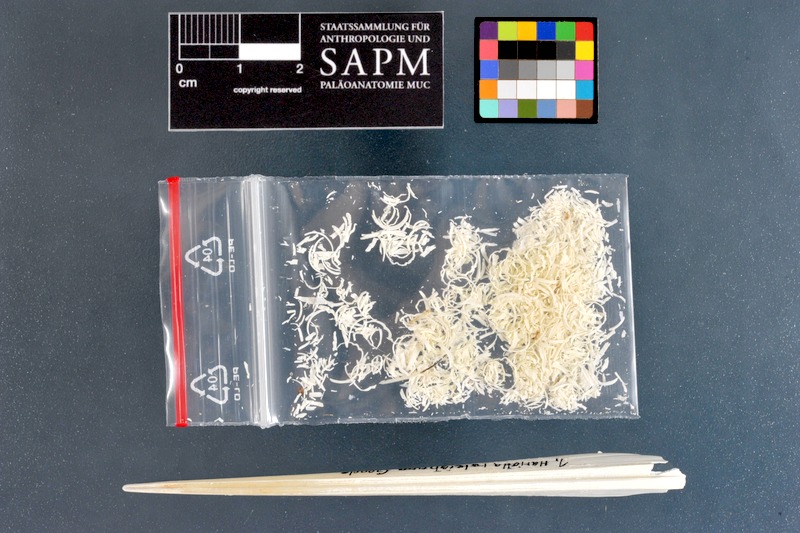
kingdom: Animalia
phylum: Chordata
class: Holocephali
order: Chimaeriformes
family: Rhinochimaeridae
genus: Harriotta
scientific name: Harriotta raleighana
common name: Bentnose rabbitfish
